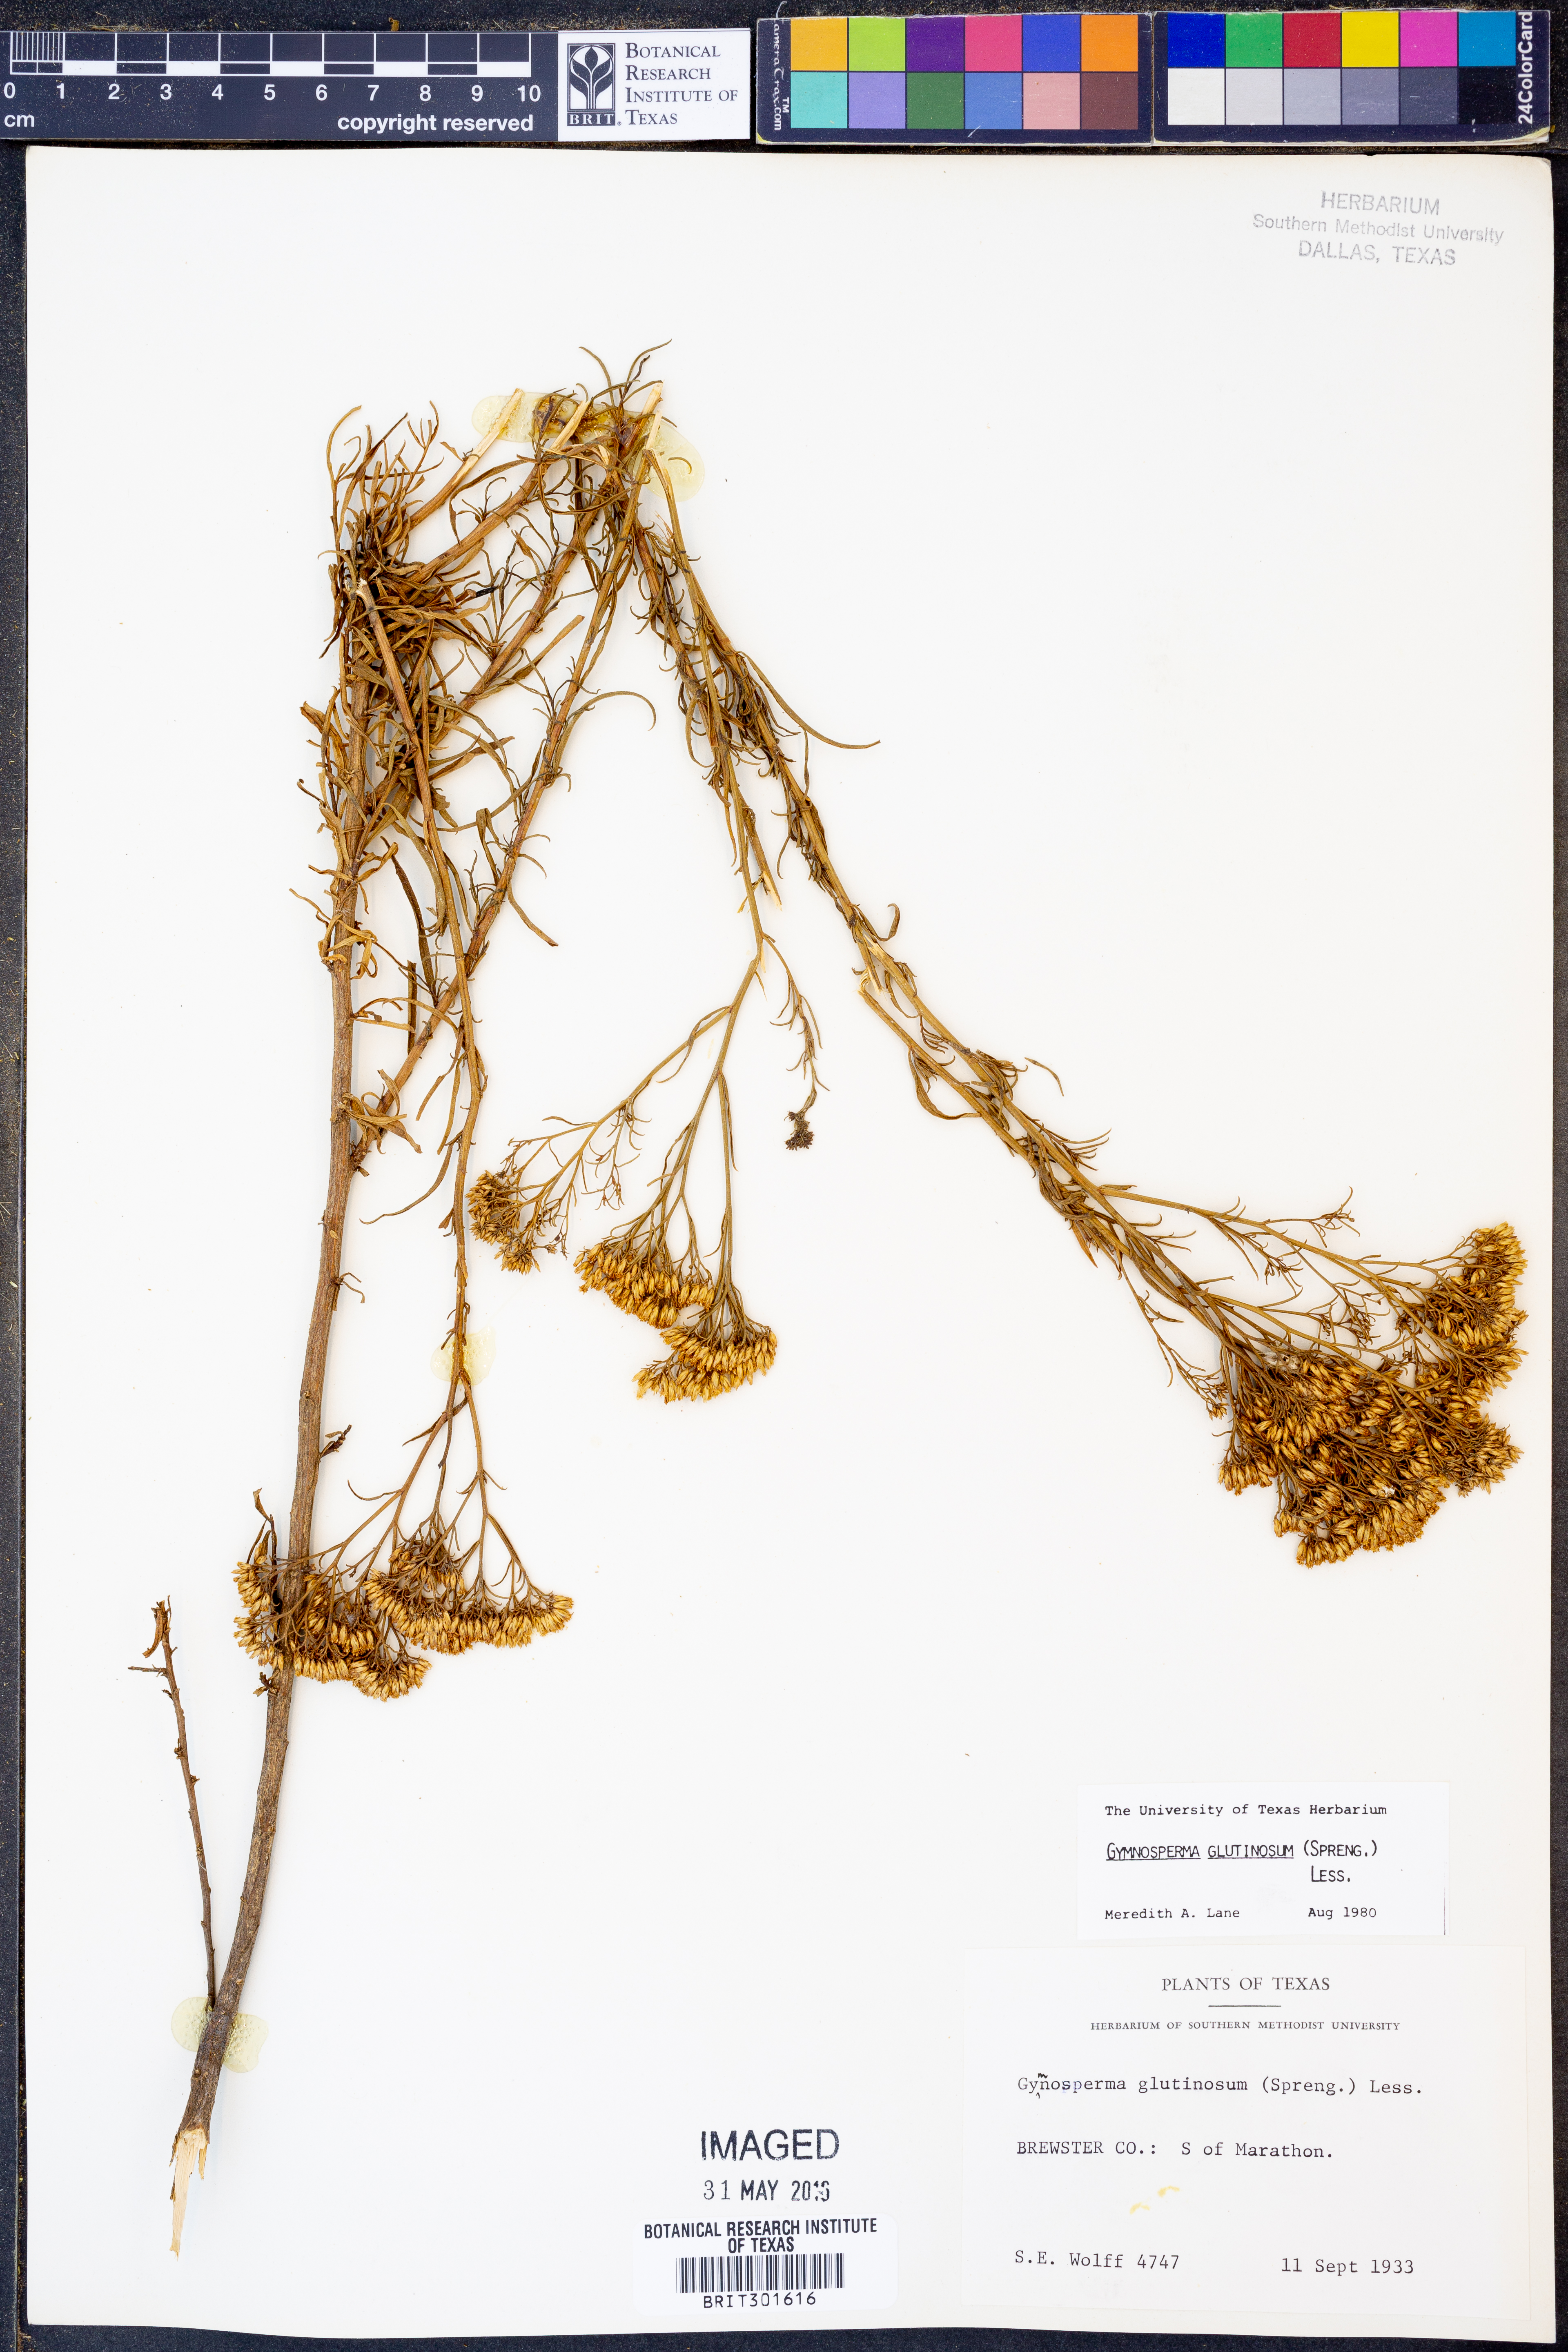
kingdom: Plantae
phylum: Tracheophyta
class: Magnoliopsida
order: Asterales
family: Asteraceae
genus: Gymnosperma
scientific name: Gymnosperma glutinosum
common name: Gumhead
